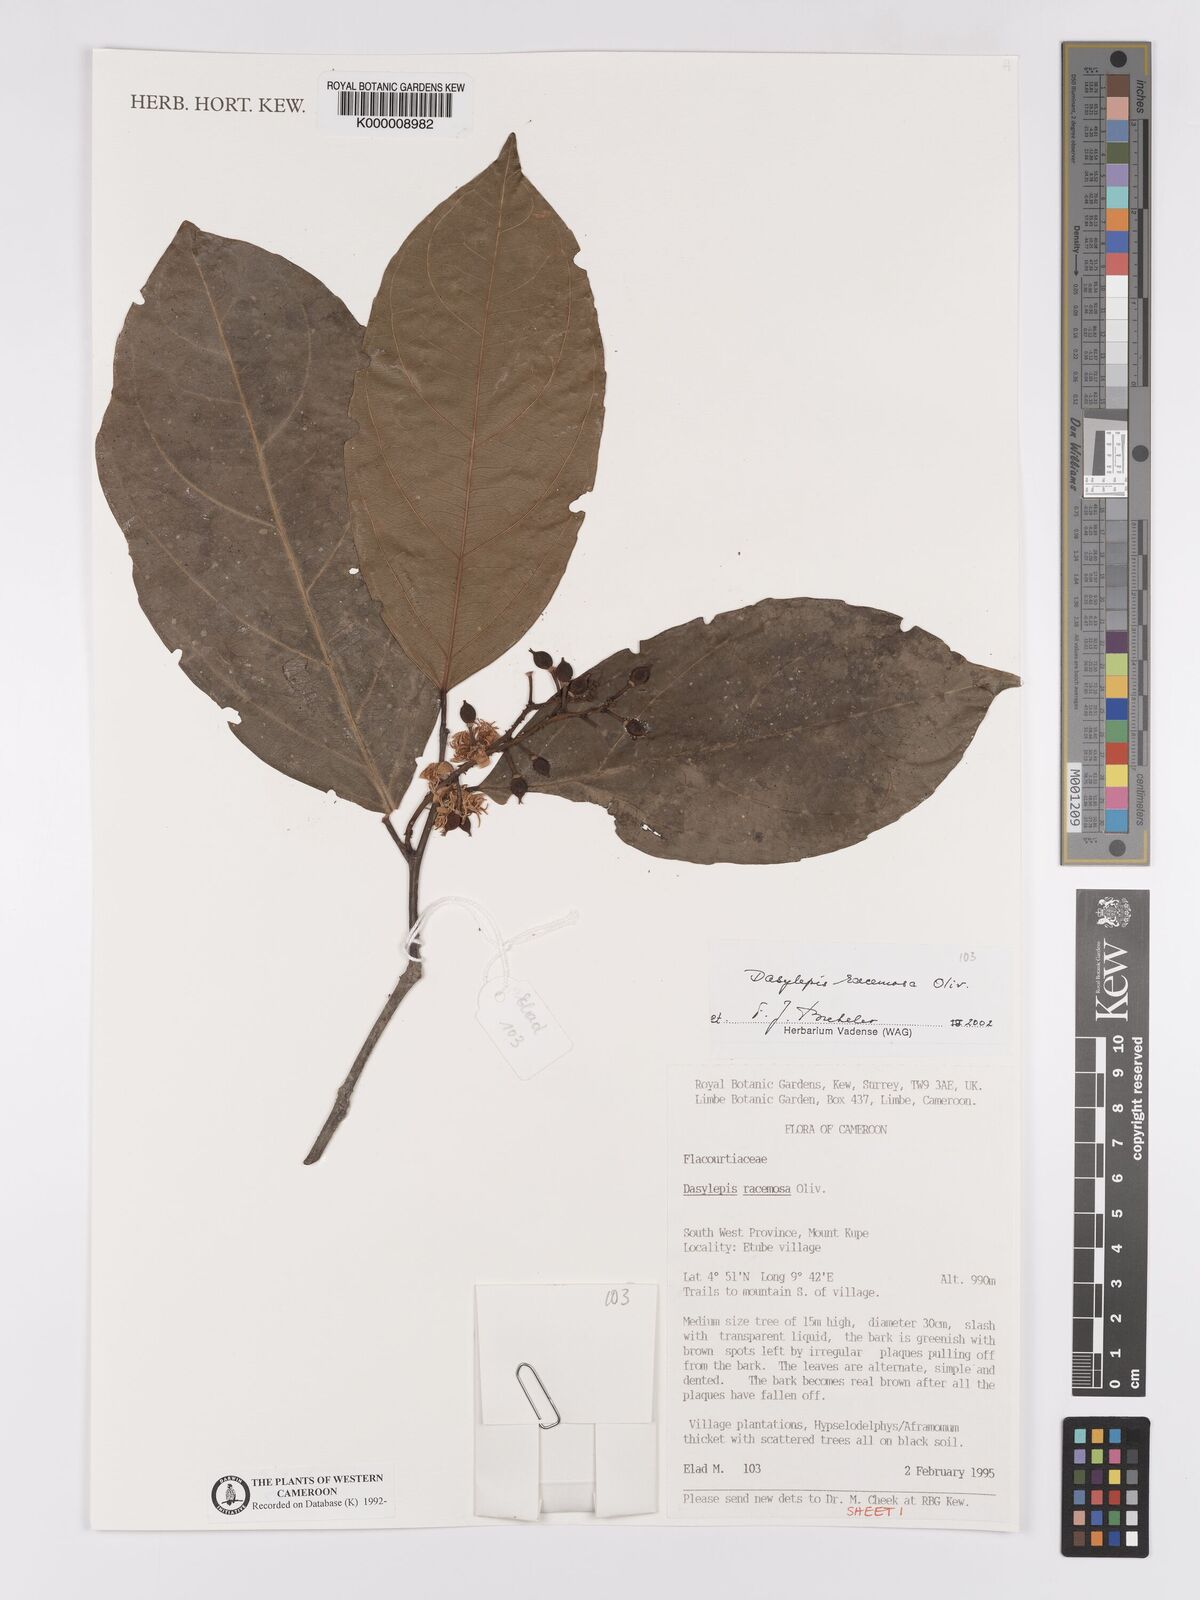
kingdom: Plantae
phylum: Tracheophyta
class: Magnoliopsida
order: Malpighiales
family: Achariaceae
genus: Dasylepis
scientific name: Dasylepis racemosa
